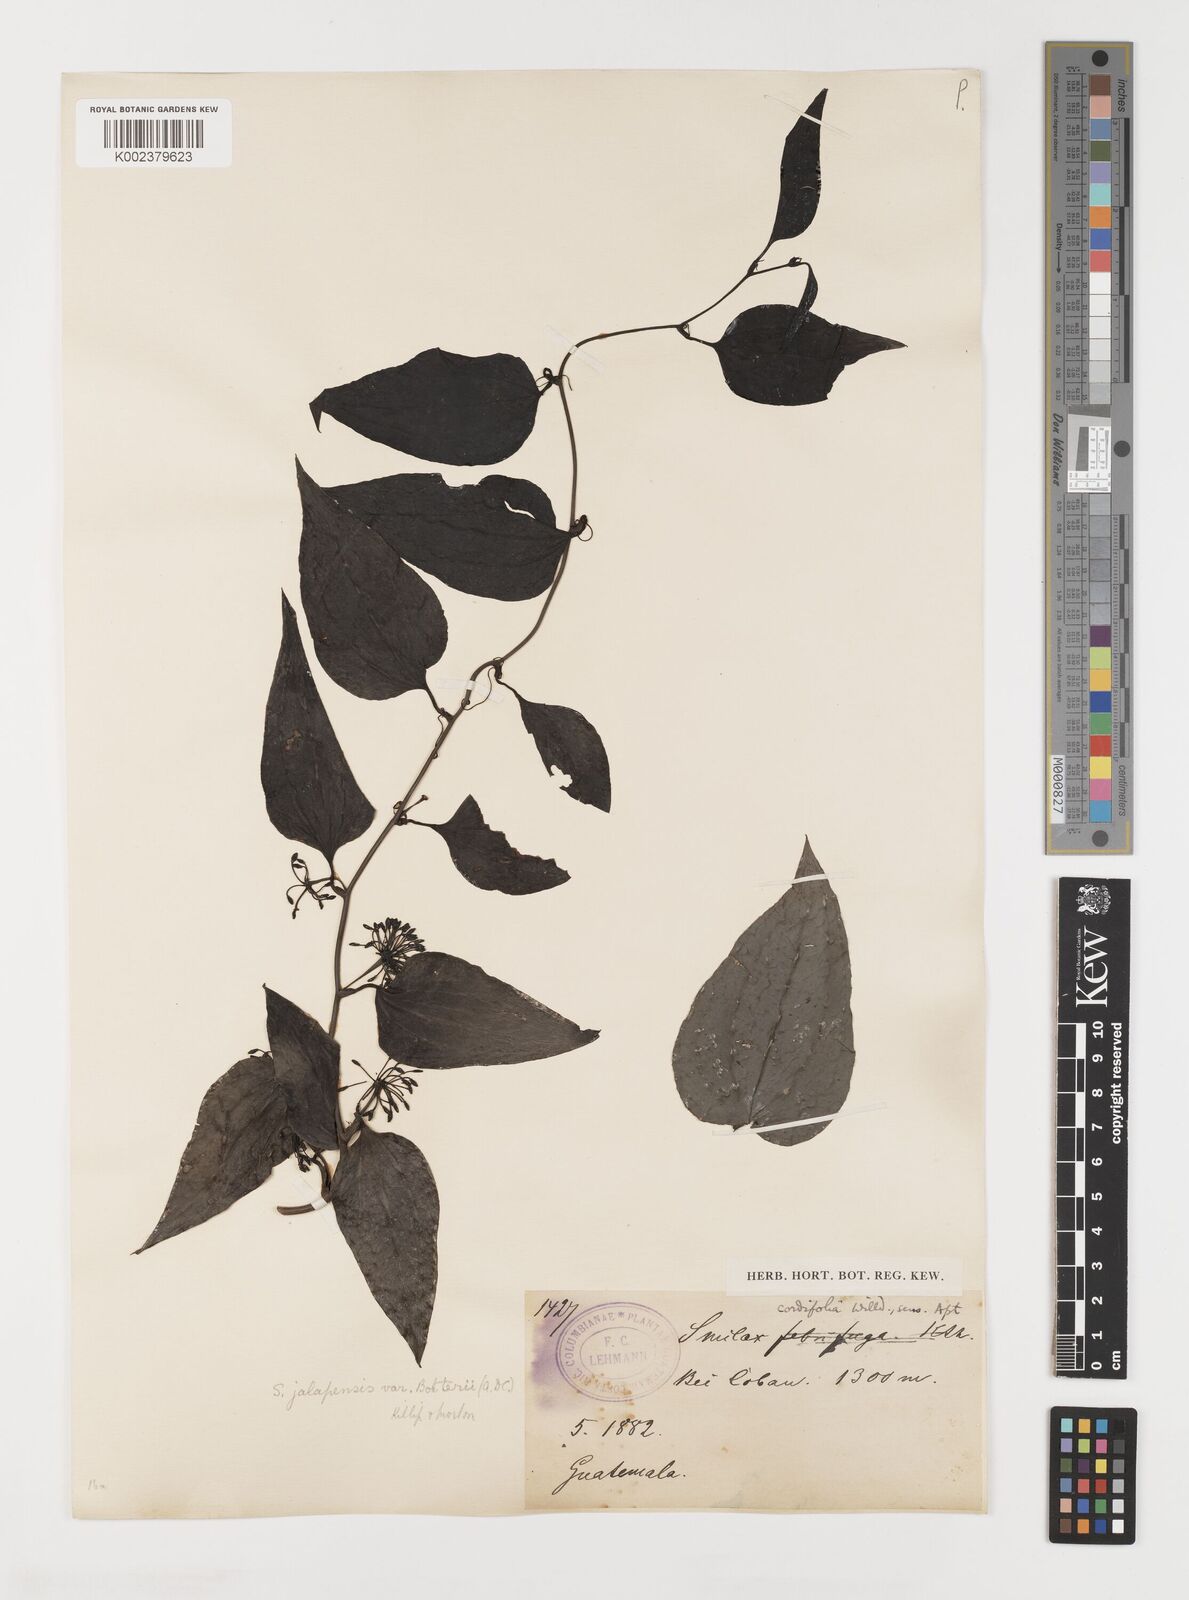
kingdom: Plantae
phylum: Tracheophyta
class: Liliopsida
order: Liliales
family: Smilacaceae
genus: Smilax
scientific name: Smilax moranensis
